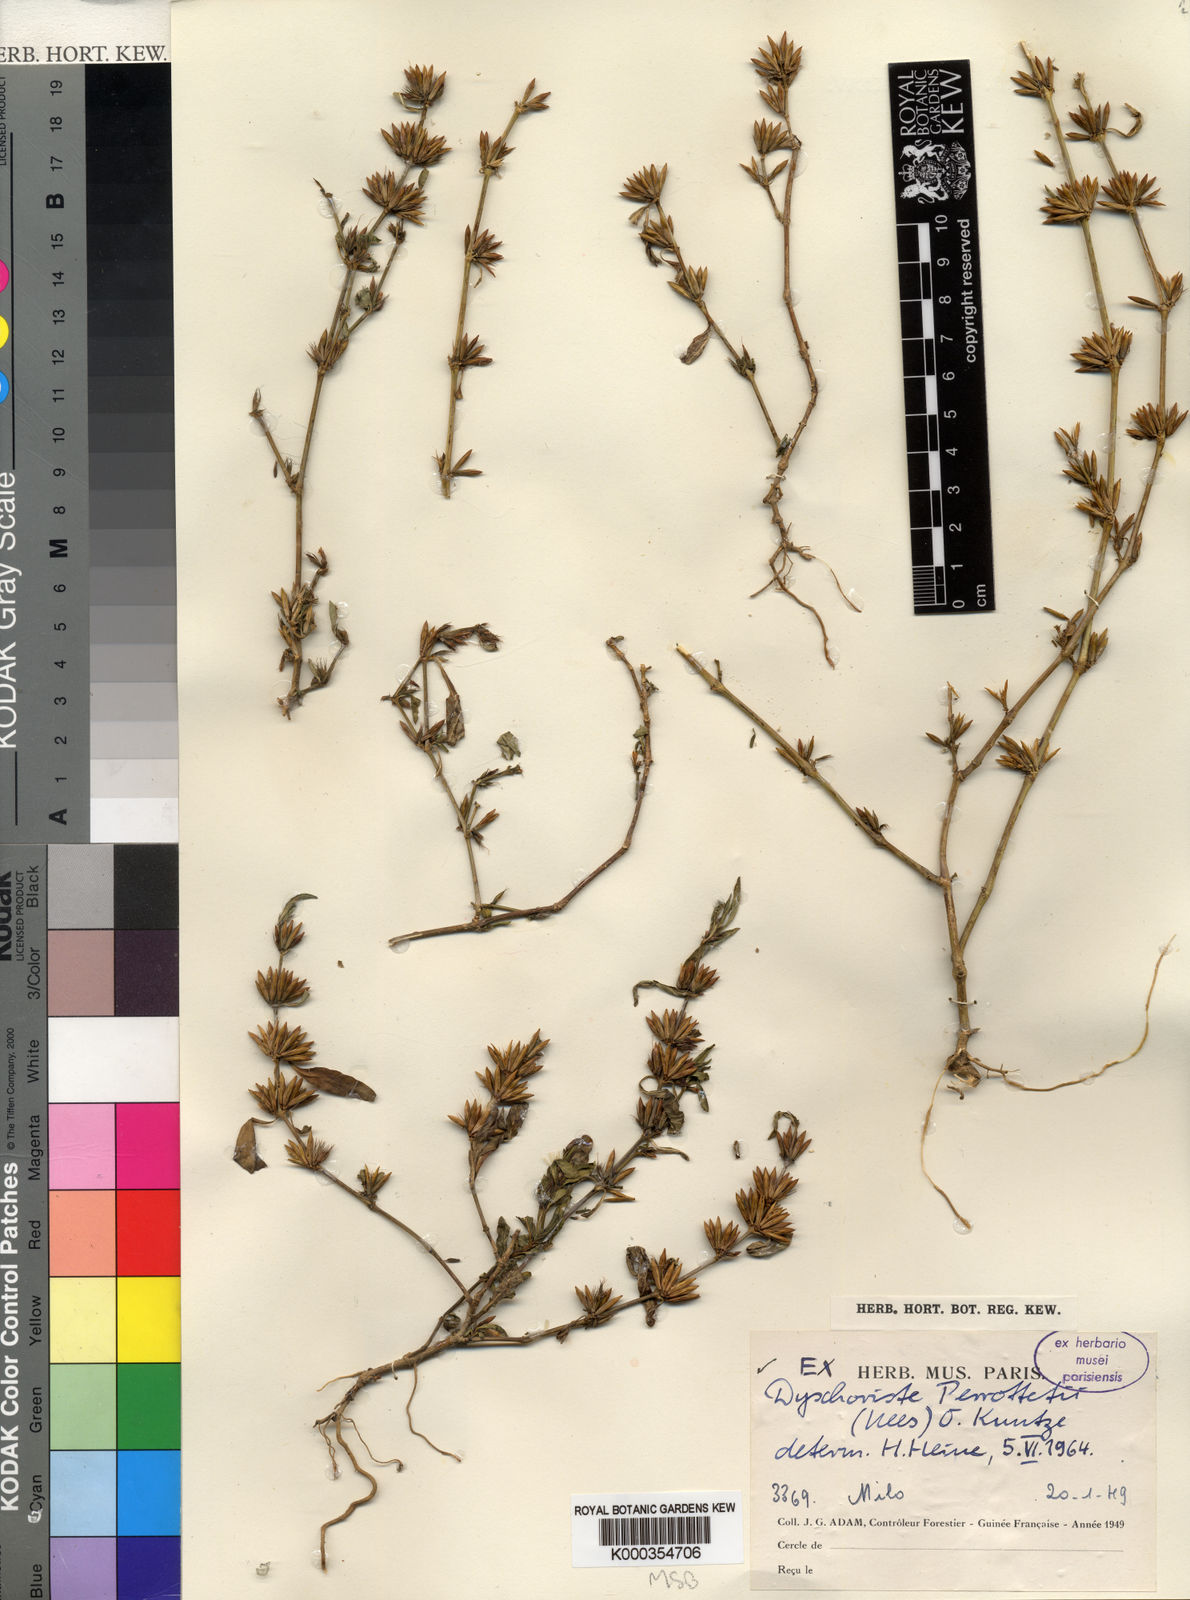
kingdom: Plantae
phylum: Tracheophyta
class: Magnoliopsida
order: Lamiales
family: Acanthaceae
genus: Dyschoriste
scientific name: Dyschoriste nagchana
